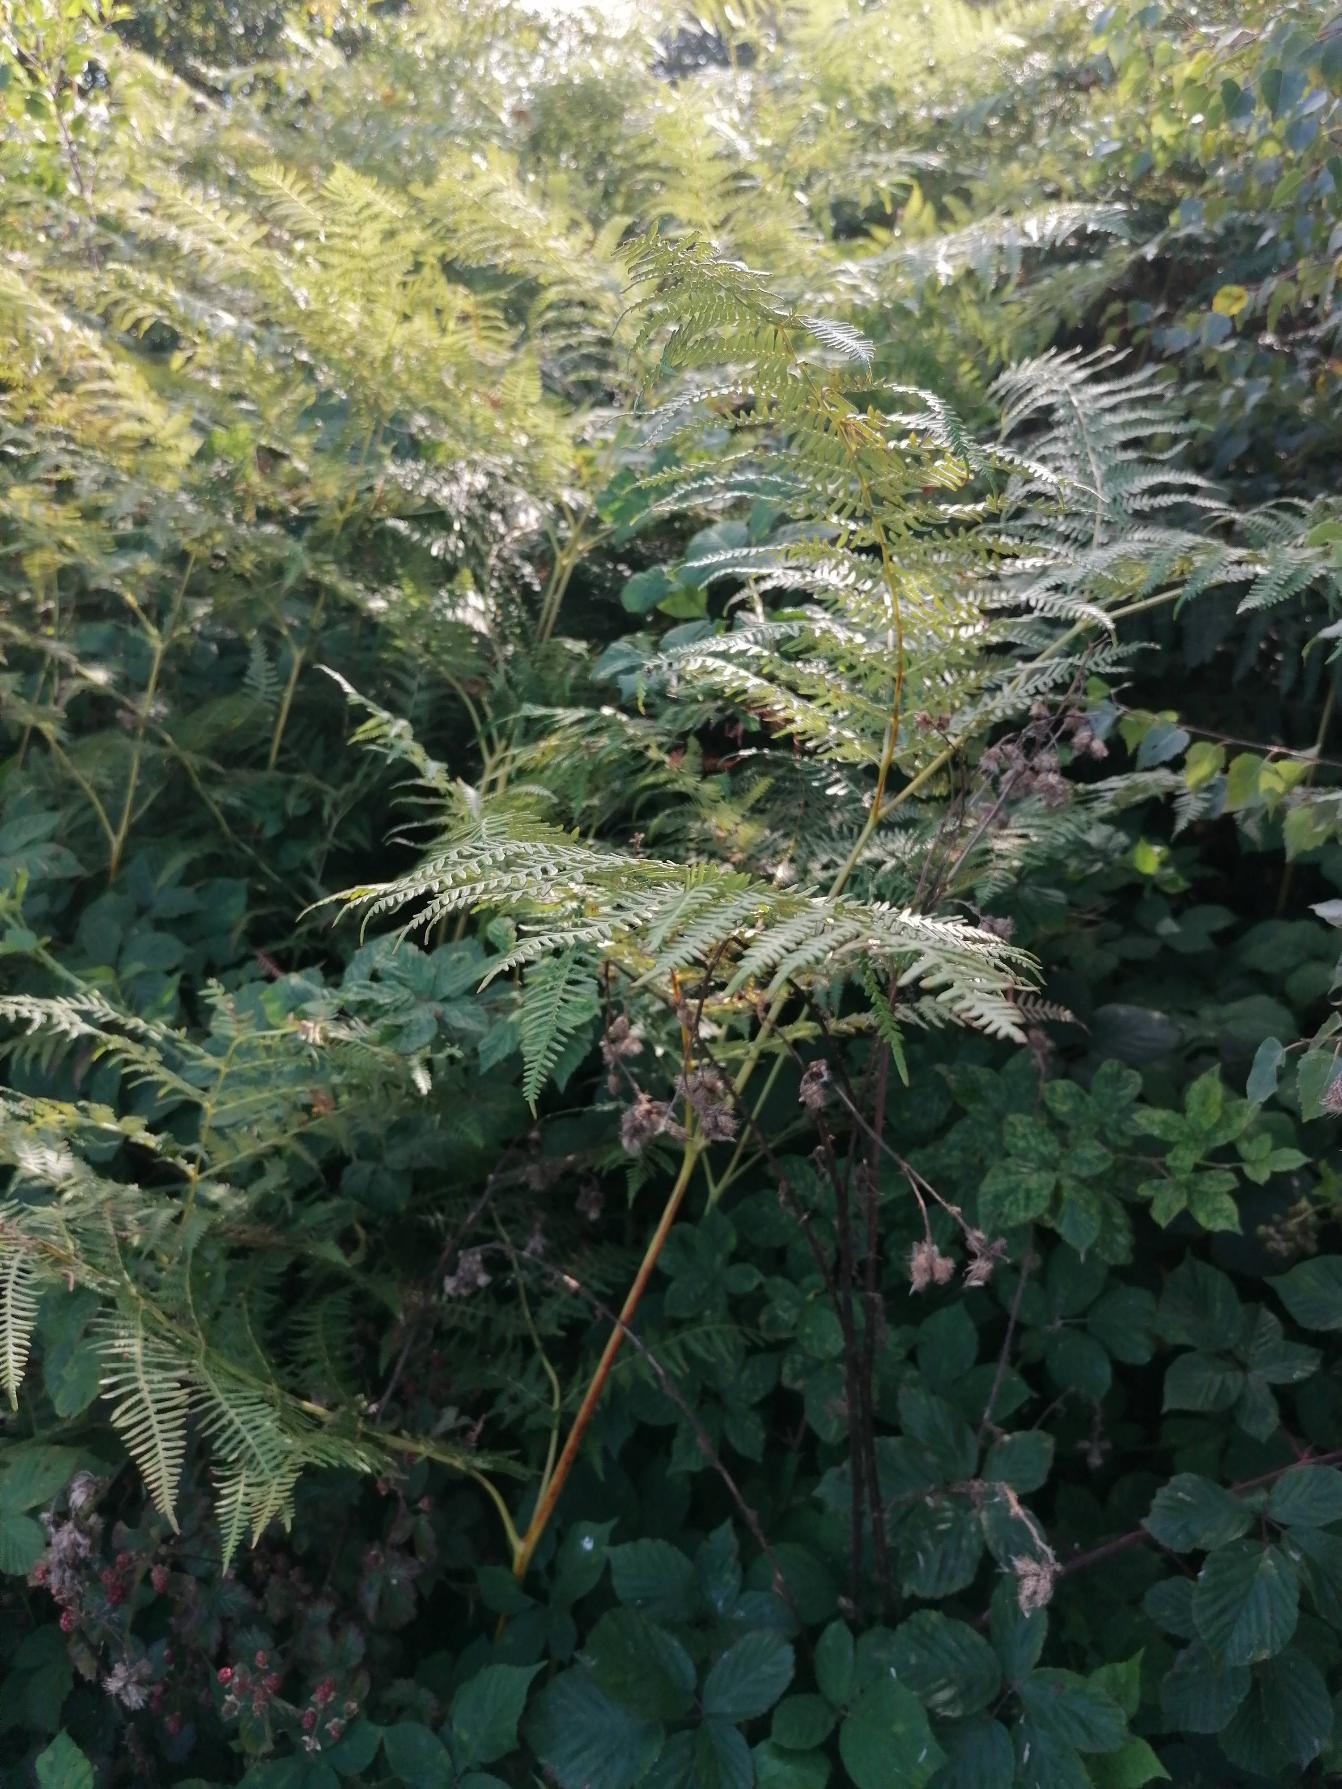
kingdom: Plantae
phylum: Tracheophyta
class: Polypodiopsida
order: Polypodiales
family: Dennstaedtiaceae
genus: Pteridium
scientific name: Pteridium aquilinum
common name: Ørnebregne
